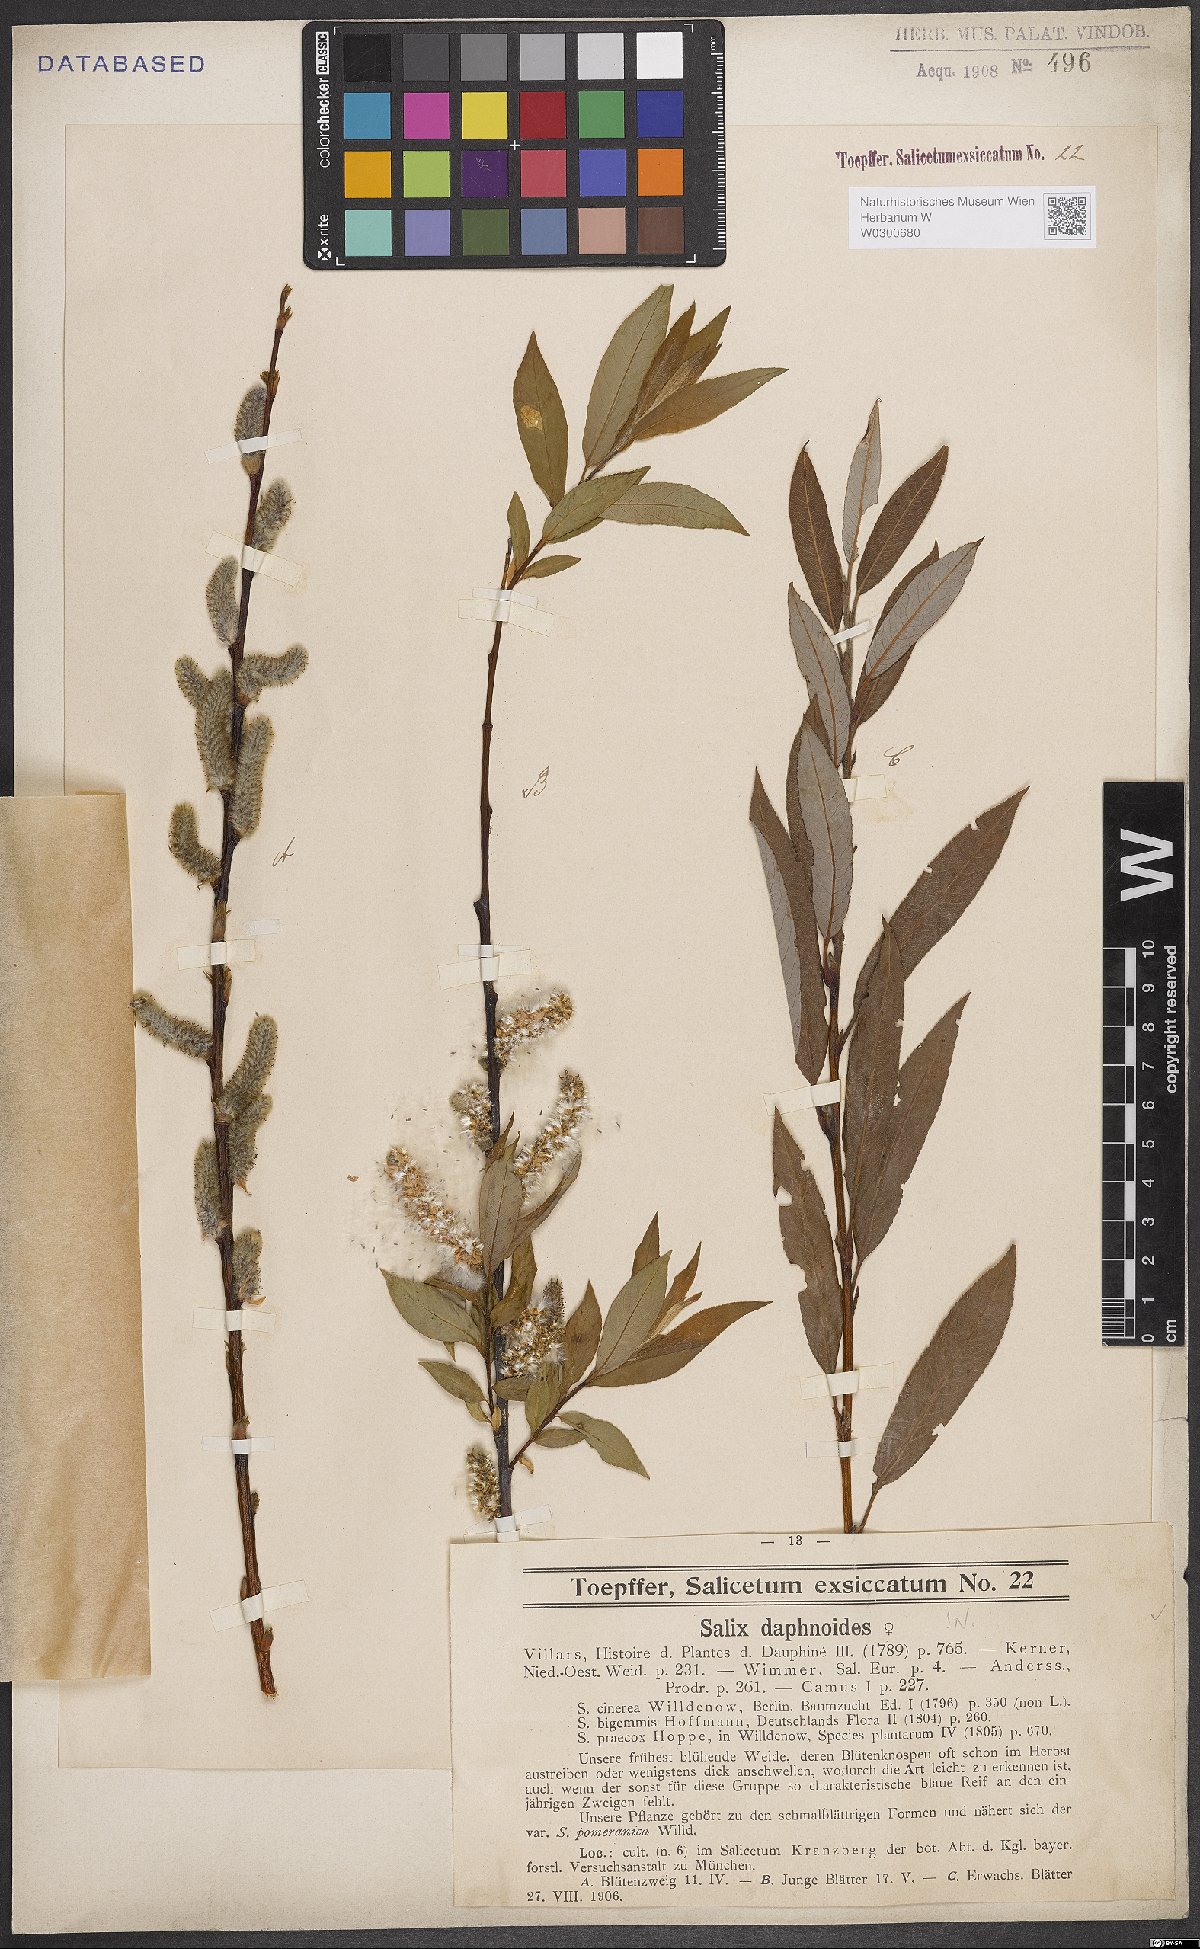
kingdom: Plantae
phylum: Tracheophyta
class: Magnoliopsida
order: Malpighiales
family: Salicaceae
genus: Salix
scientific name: Salix daphnoides
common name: European violet-willow
